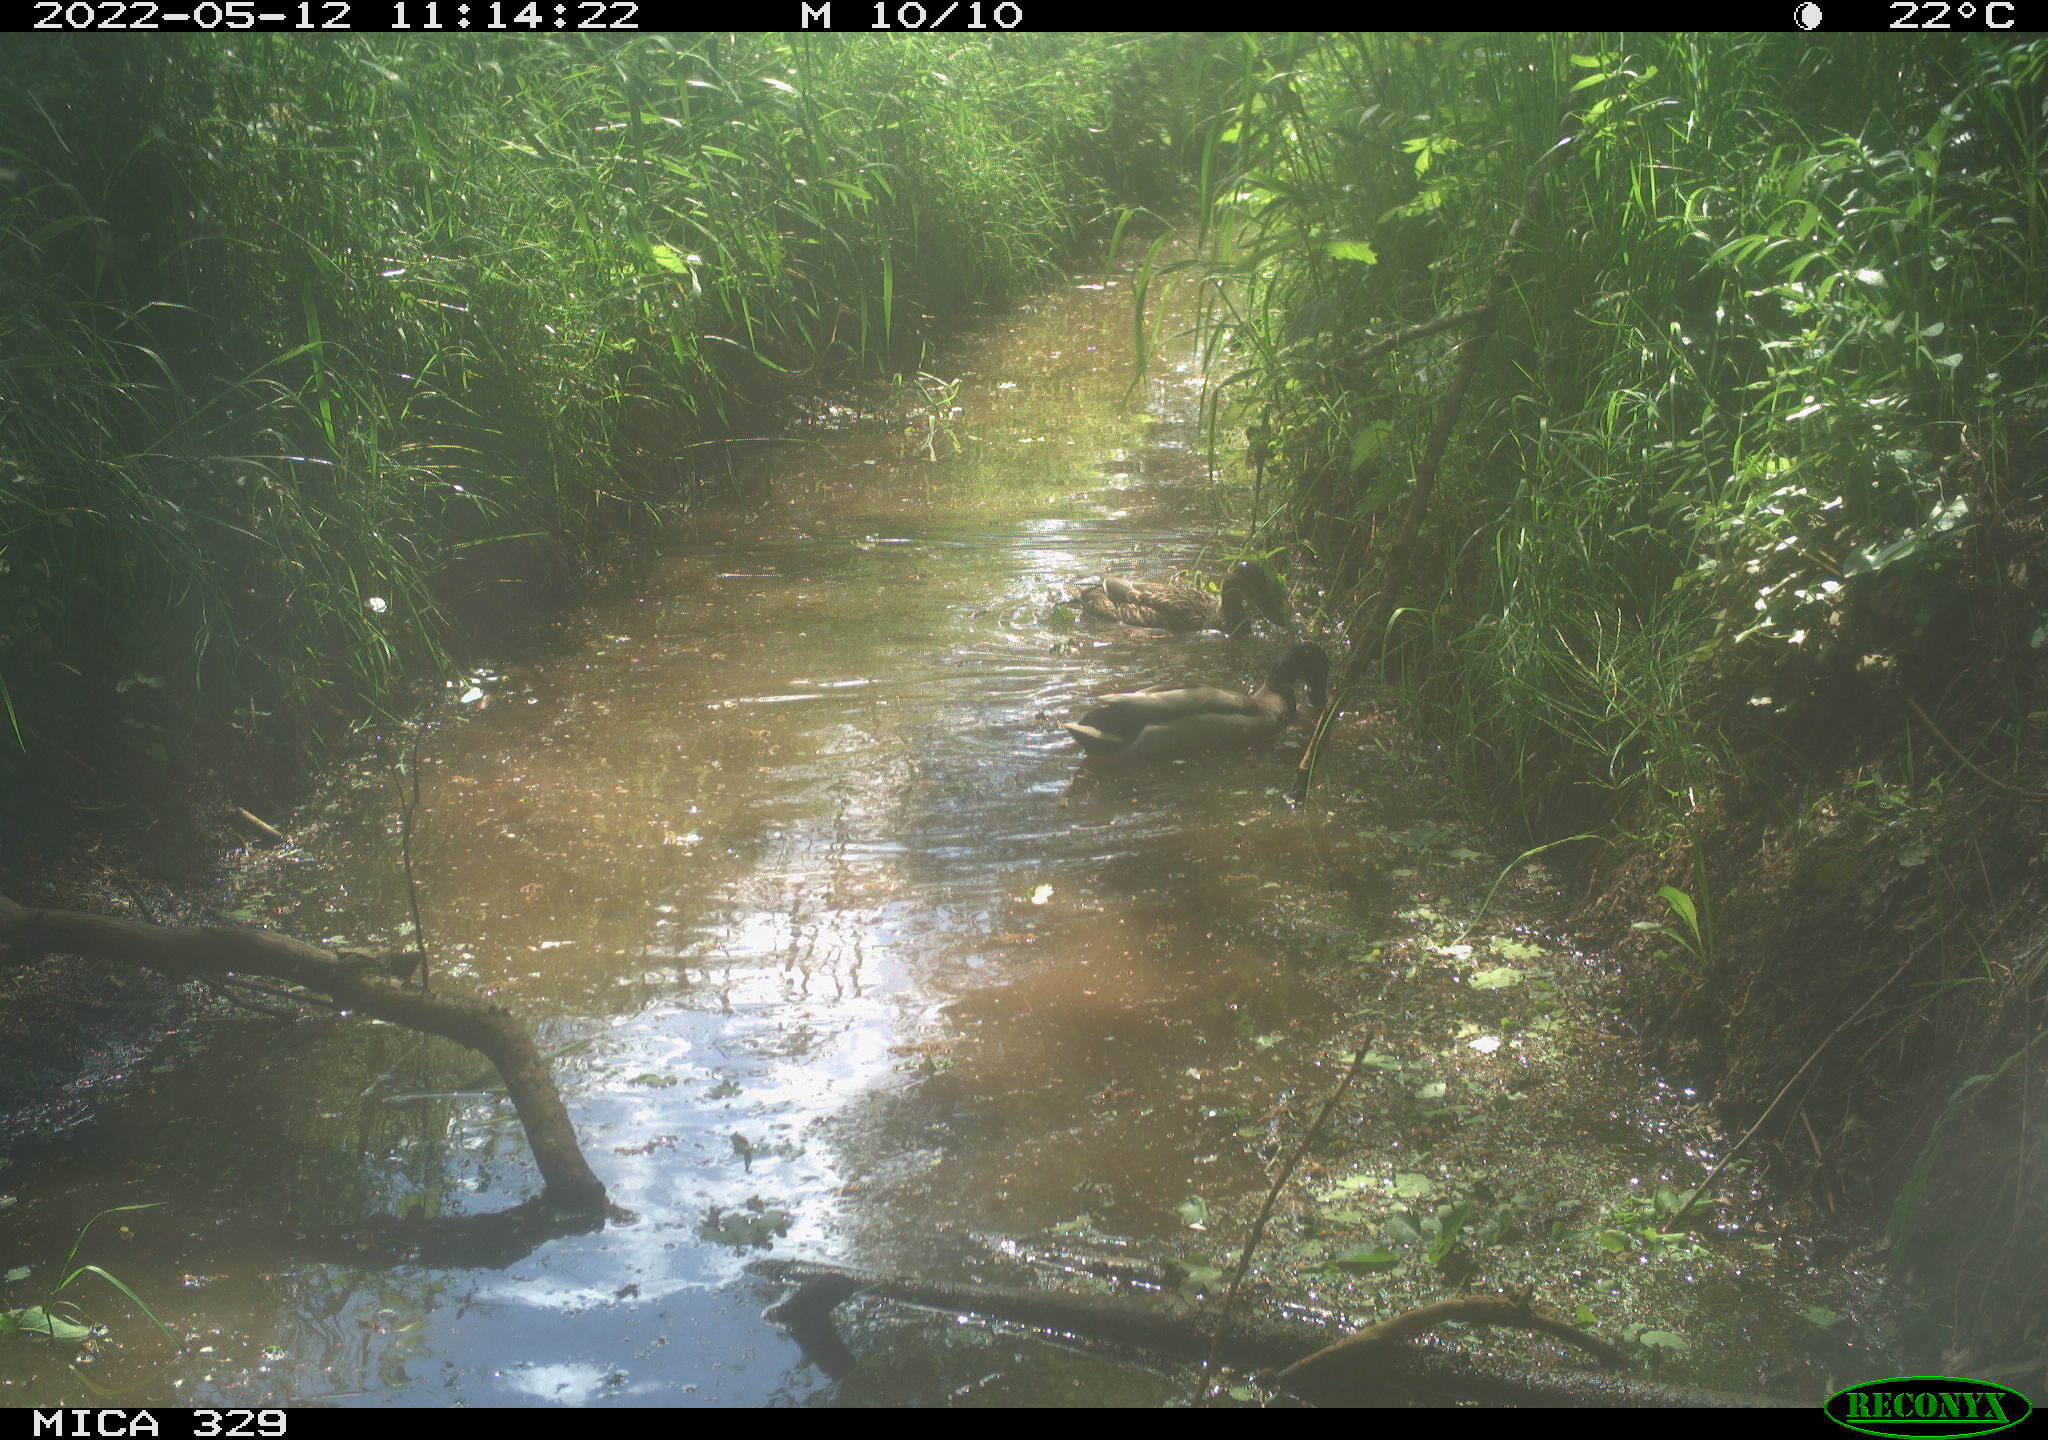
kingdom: Animalia
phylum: Chordata
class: Aves
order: Anseriformes
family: Anatidae
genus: Anas
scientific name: Anas platyrhynchos
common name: Mallard
